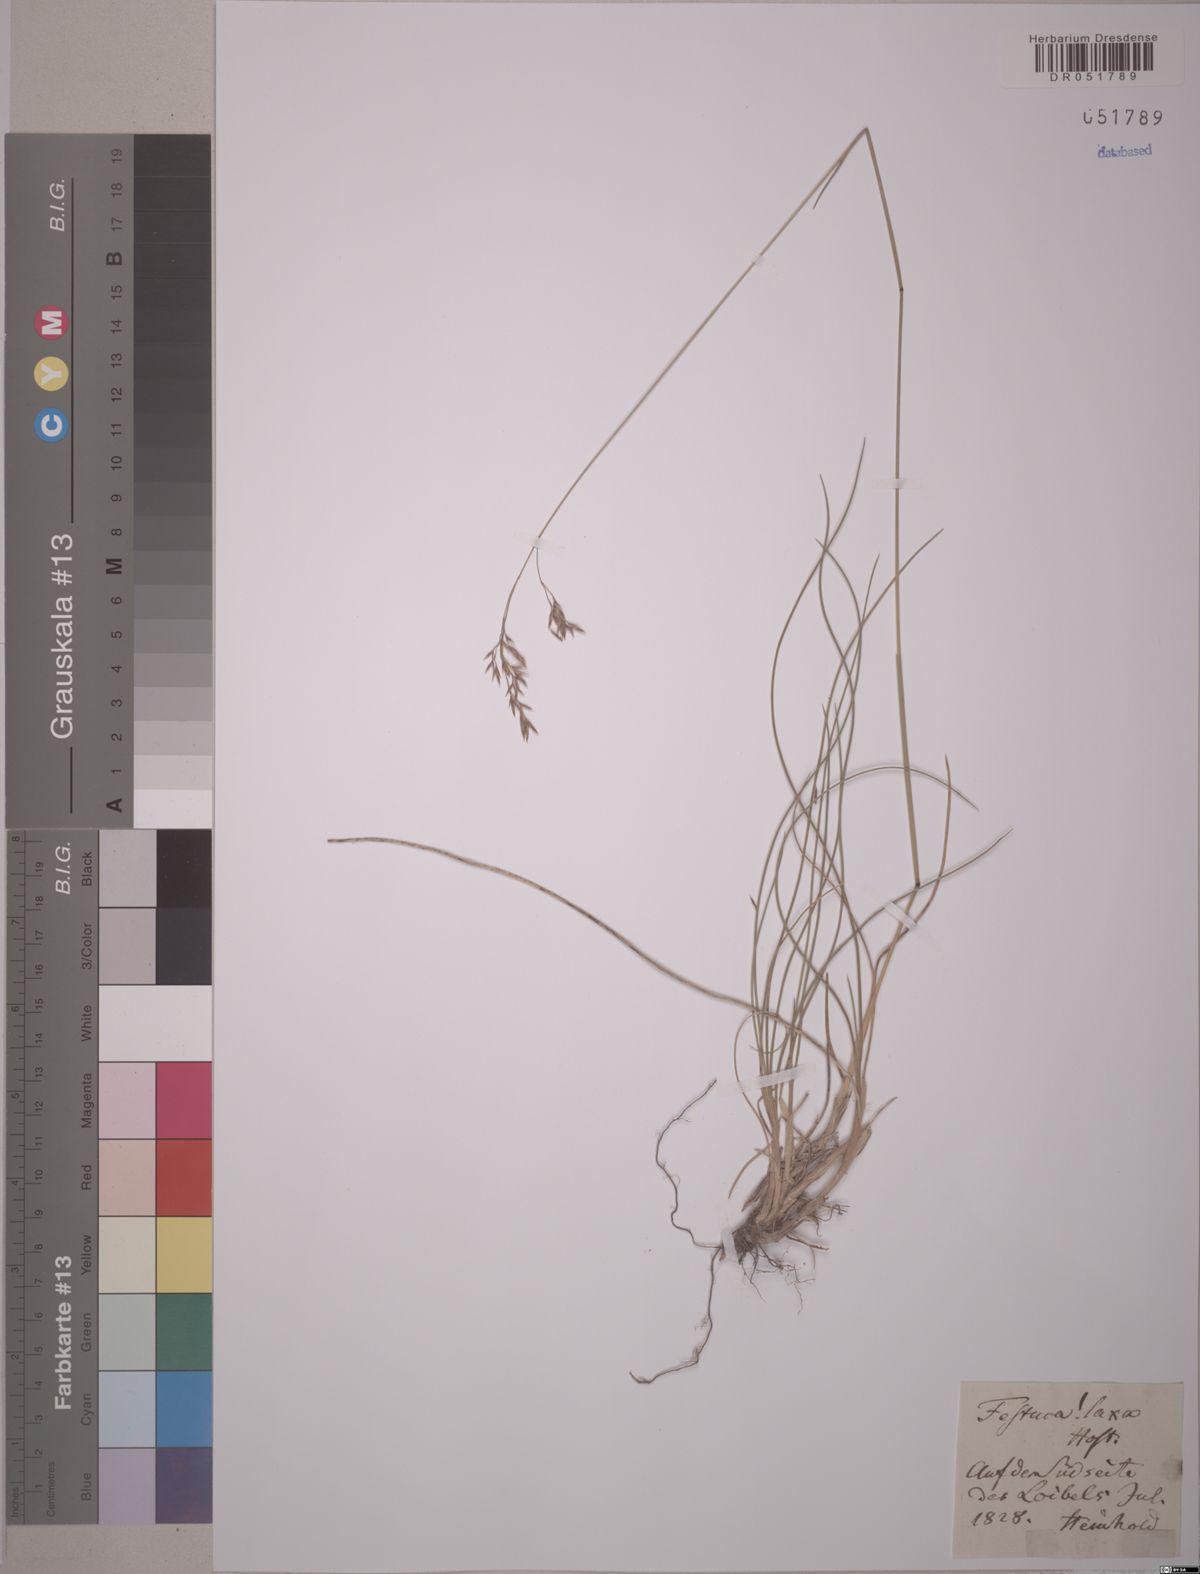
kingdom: Plantae
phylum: Tracheophyta
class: Liliopsida
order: Poales
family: Poaceae
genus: Festuca
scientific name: Festuca laxa
